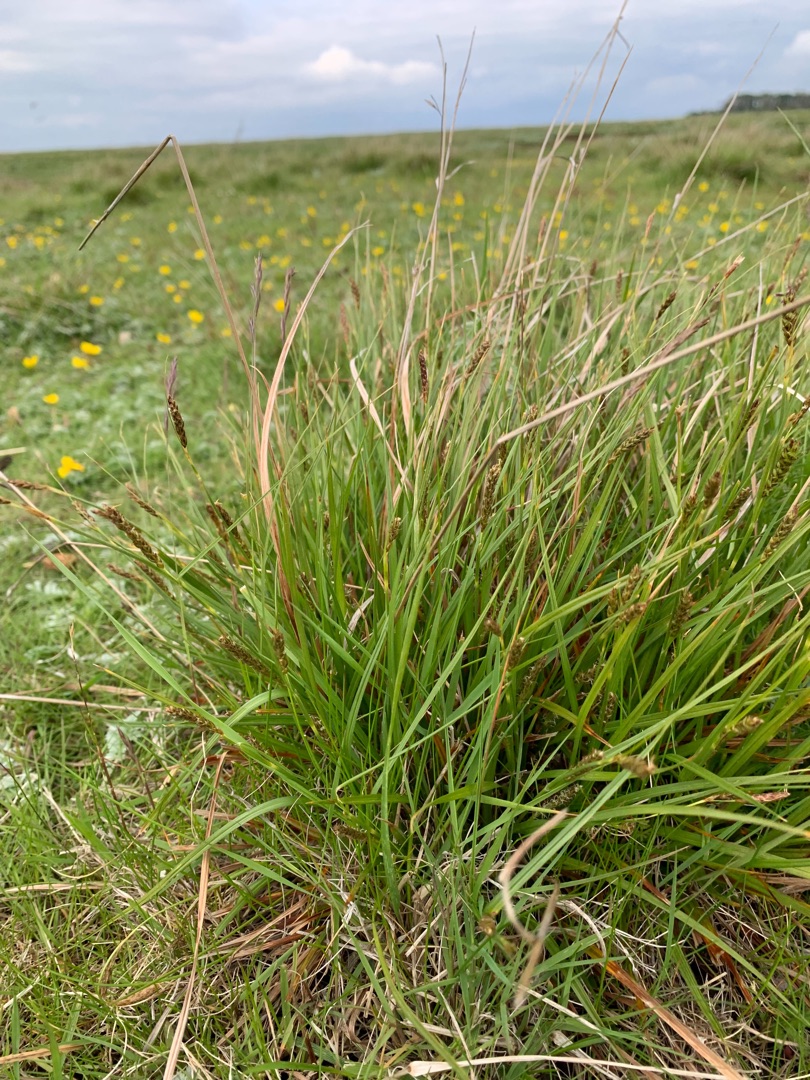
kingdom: Plantae
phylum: Tracheophyta
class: Liliopsida
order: Poales
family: Cyperaceae
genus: Carex
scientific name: Carex distans
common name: Fjernakset star
